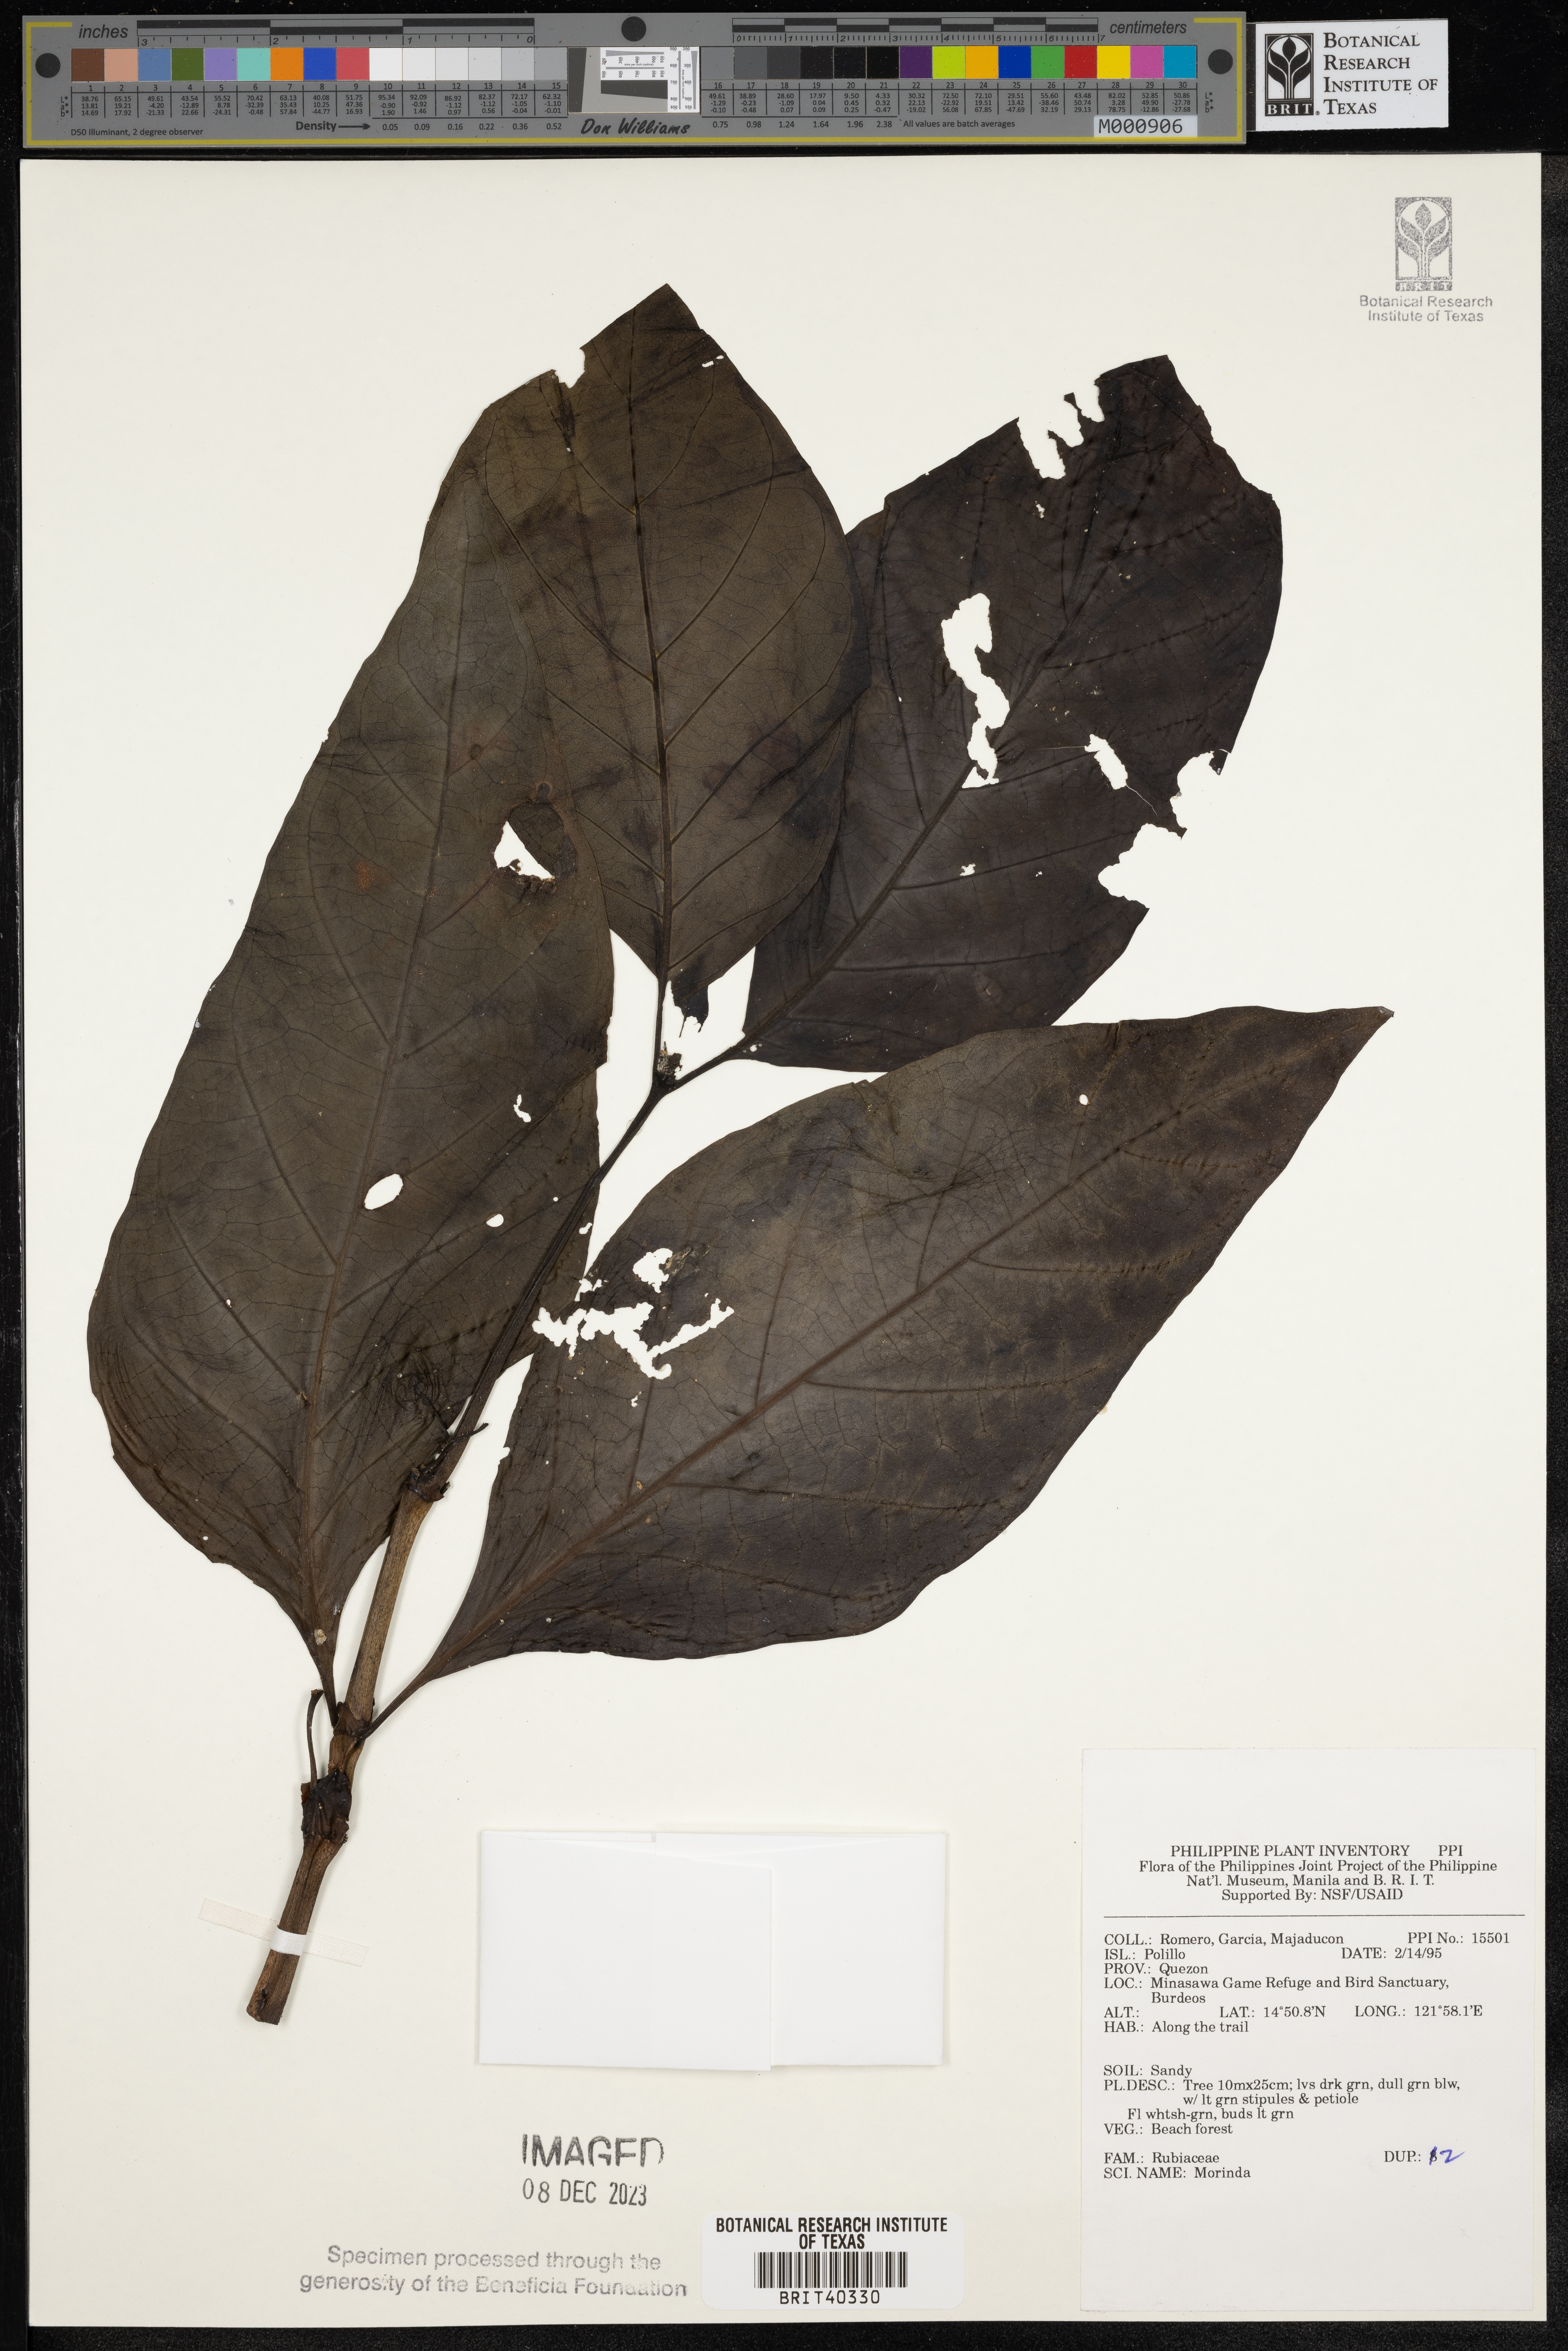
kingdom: Plantae
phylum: Tracheophyta
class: Magnoliopsida
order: Gentianales
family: Rubiaceae
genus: Morinda
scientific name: Morinda
